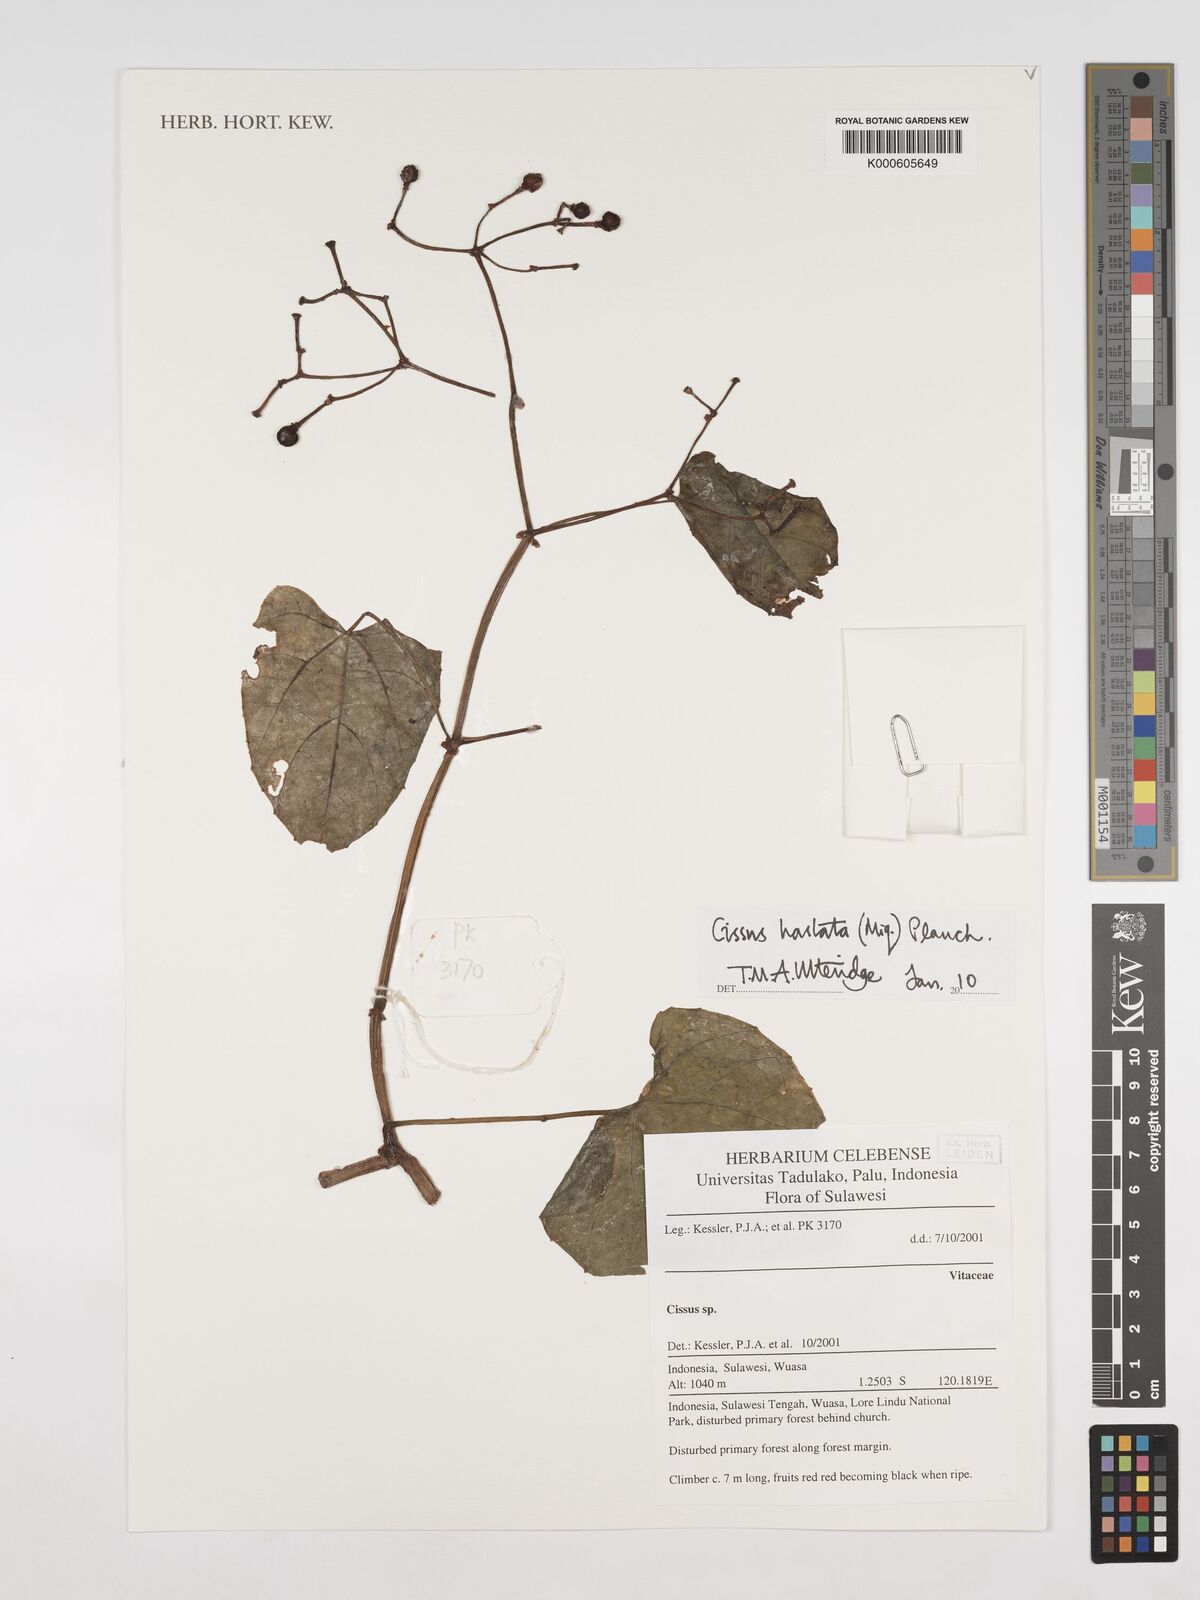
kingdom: Plantae
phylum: Tracheophyta
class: Magnoliopsida
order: Vitales
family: Vitaceae
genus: Cissus
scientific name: Cissus
